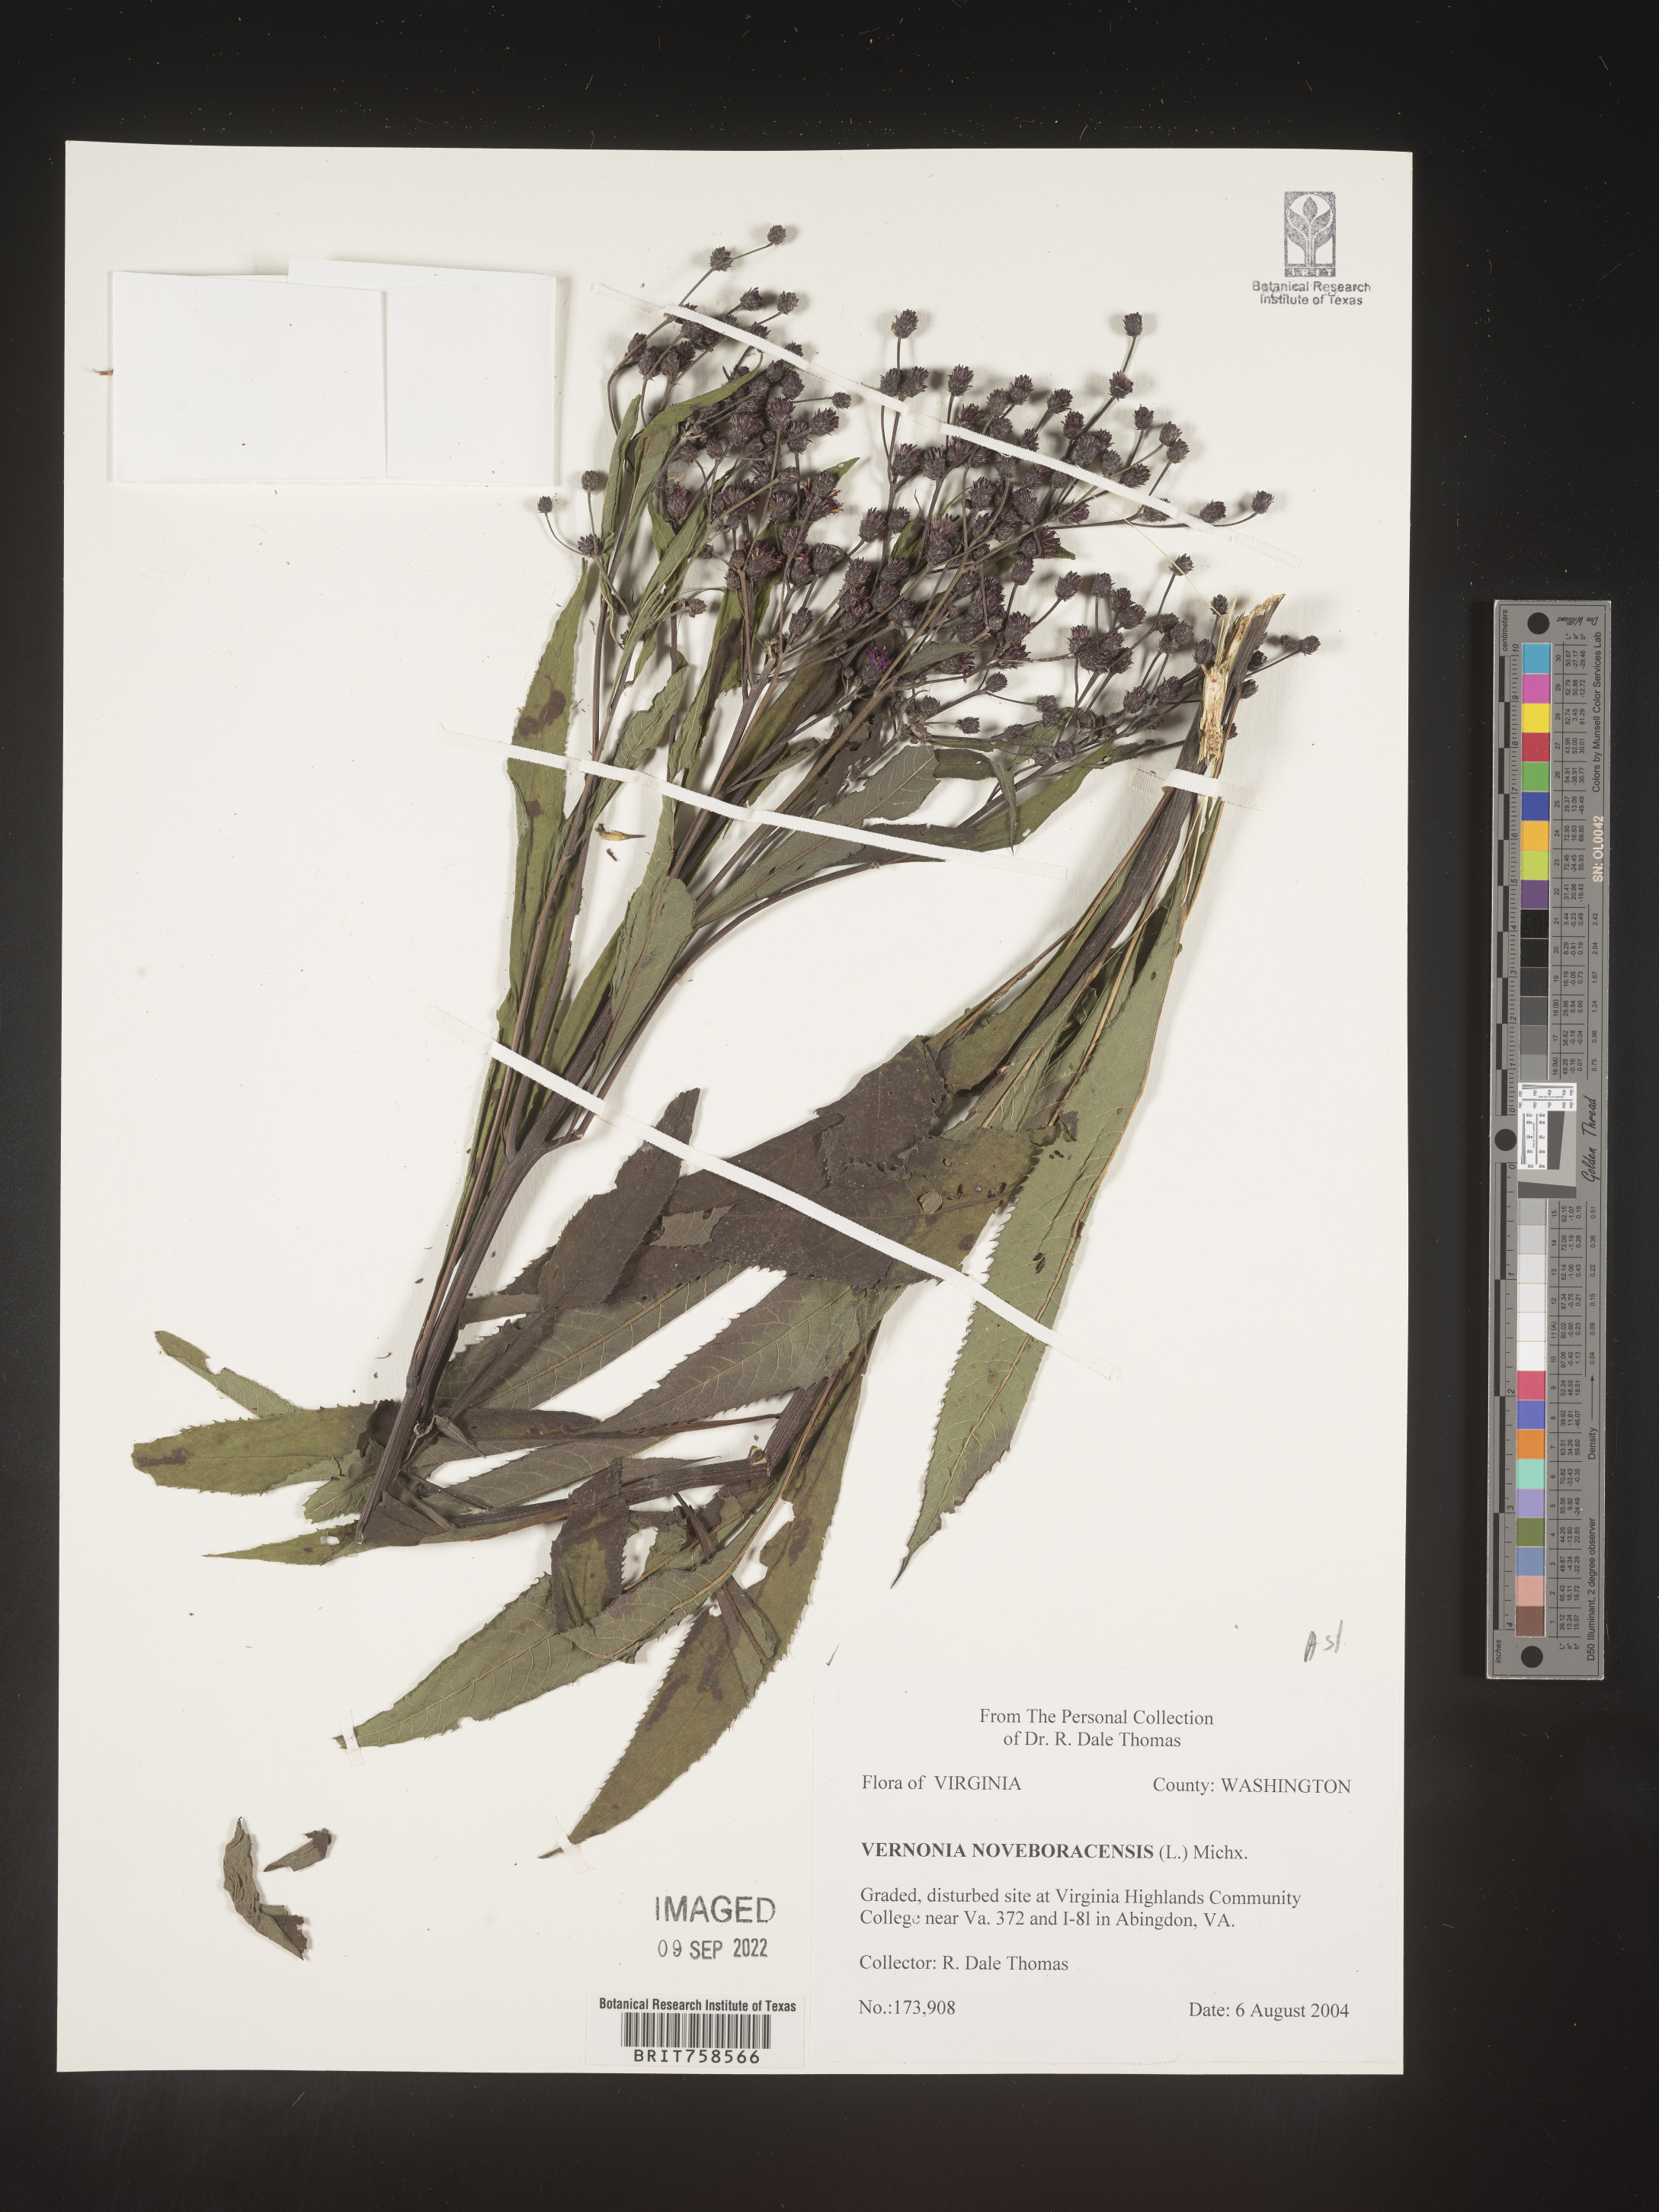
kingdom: Plantae
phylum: Tracheophyta
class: Magnoliopsida
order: Asterales
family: Asteraceae
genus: Vernonia
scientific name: Vernonia noveboracensis
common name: New york ironweed
